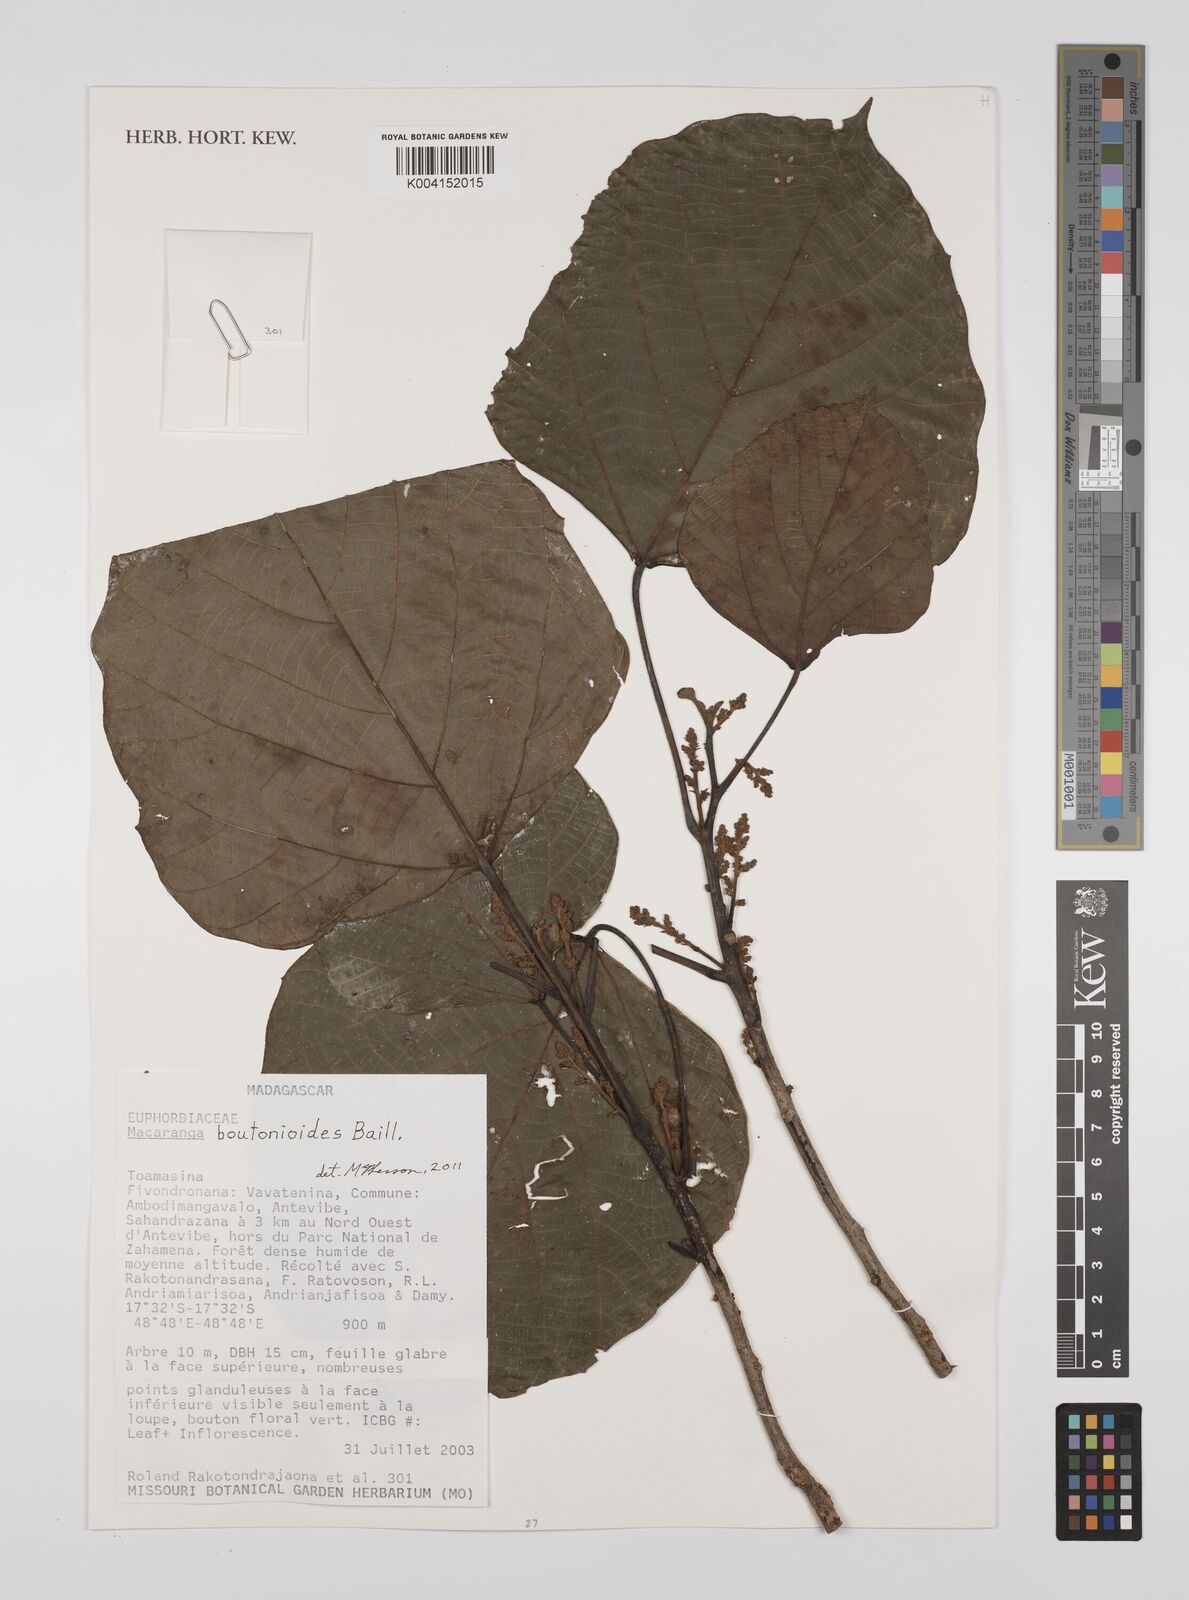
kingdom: Plantae
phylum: Tracheophyta
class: Magnoliopsida
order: Malpighiales
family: Euphorbiaceae
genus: Macaranga
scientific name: Macaranga boutonioides
